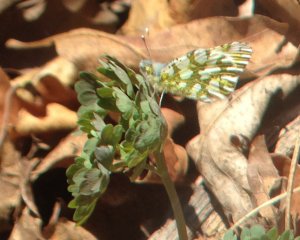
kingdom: Animalia
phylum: Arthropoda
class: Insecta
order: Lepidoptera
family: Pieridae
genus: Euchloe
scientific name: Euchloe ausonides
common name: Large Marble
